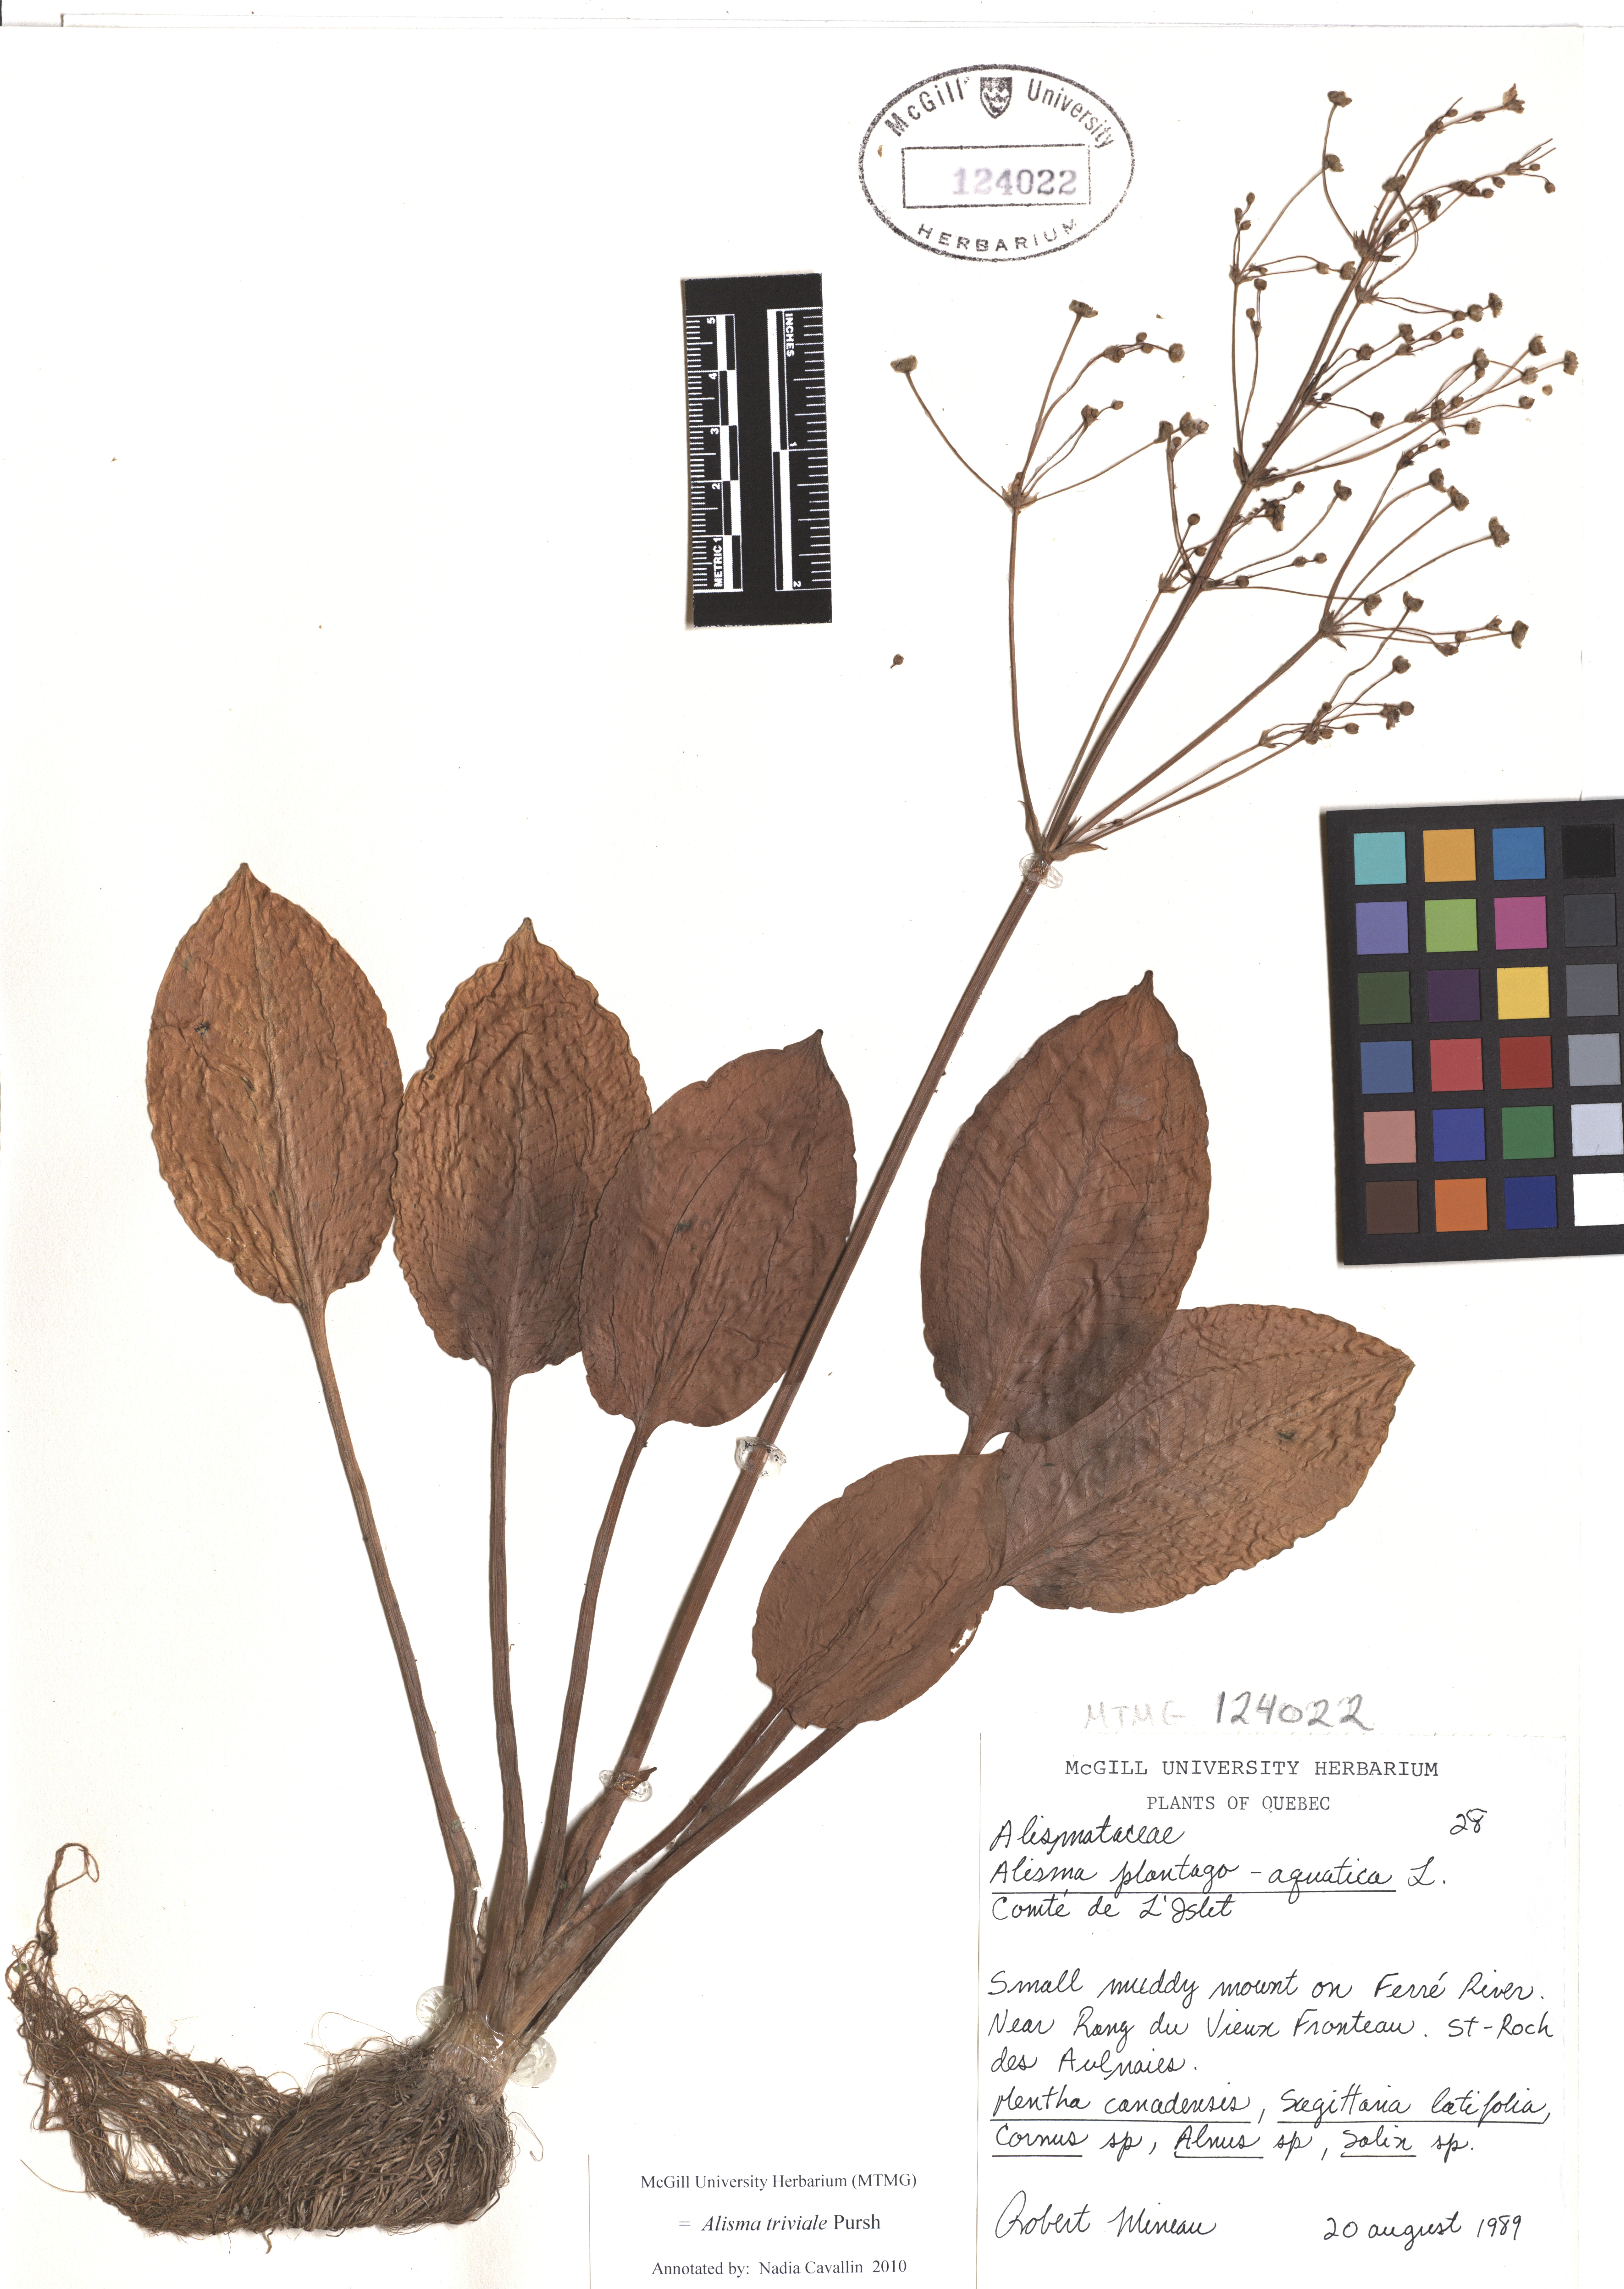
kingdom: Plantae
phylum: Tracheophyta
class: Liliopsida
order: Alismatales
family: Alismataceae
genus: Alisma
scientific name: Alisma triviale
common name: Northern water-plantain
